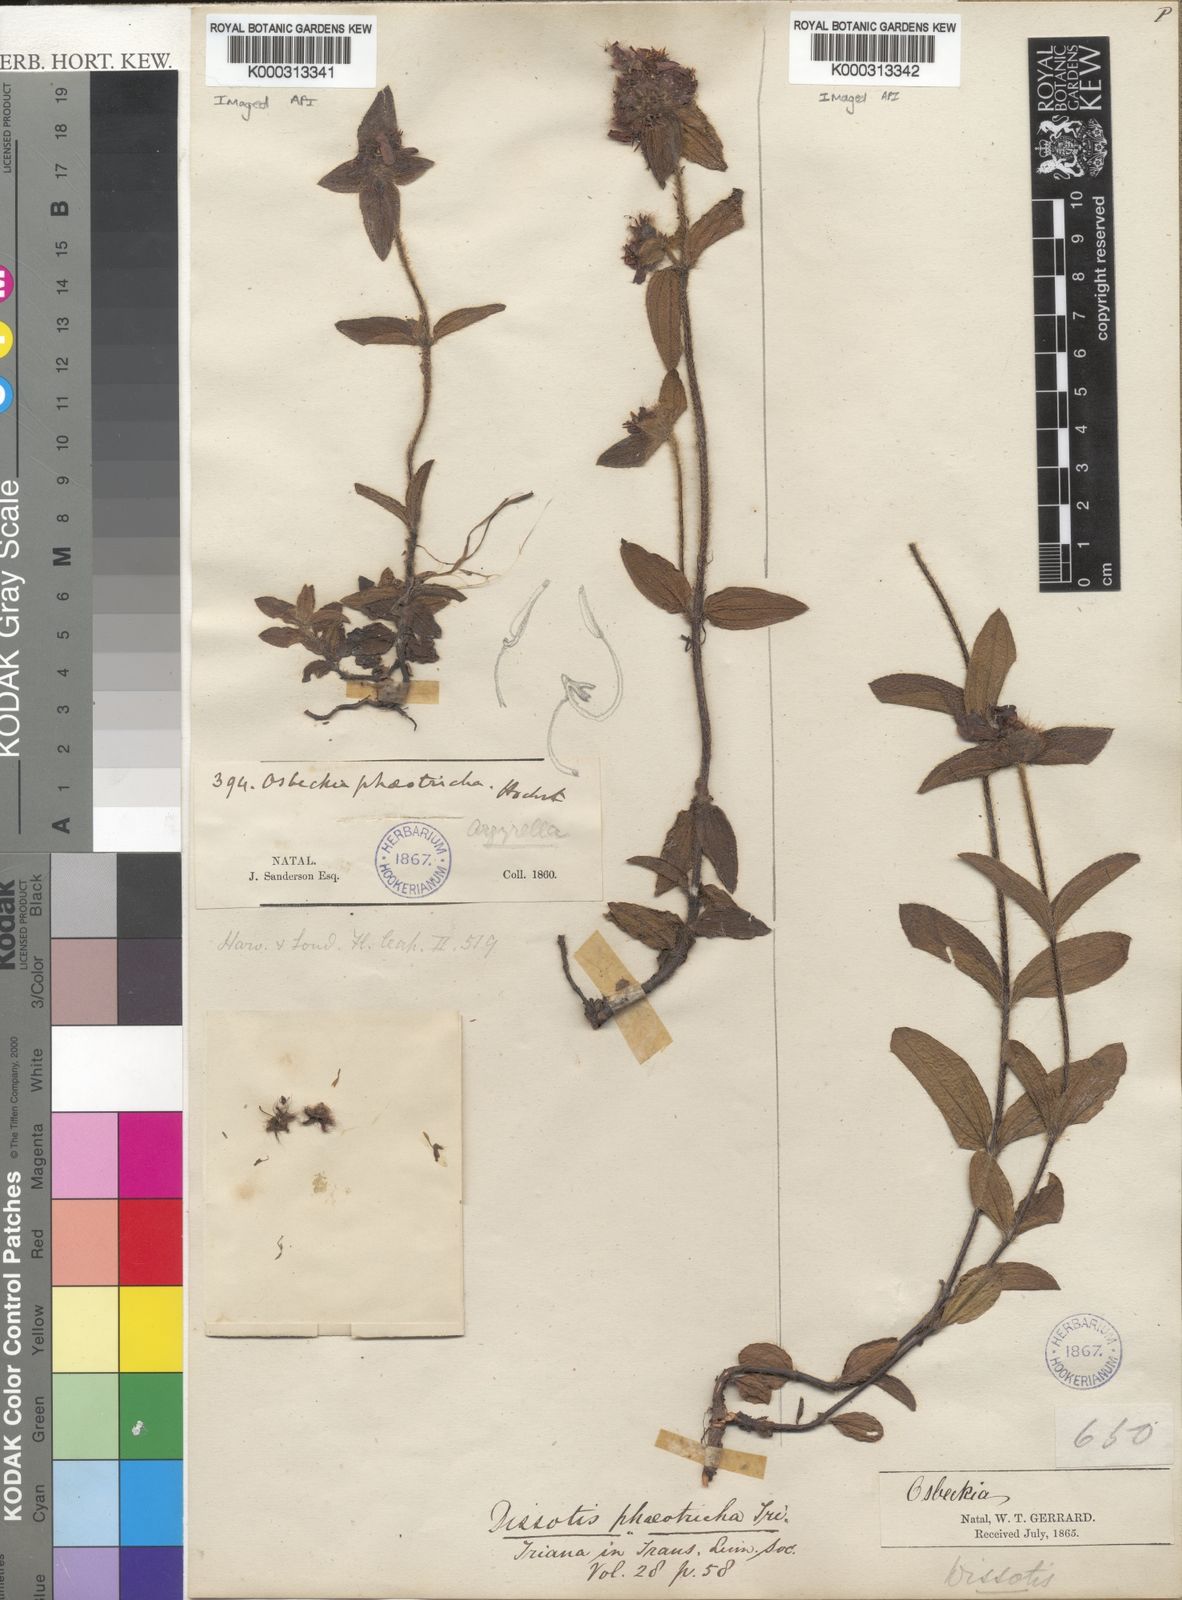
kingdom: Plantae
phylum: Tracheophyta
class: Magnoliopsida
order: Myrtales
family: Melastomataceae
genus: Dissotis
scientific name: Dissotis
